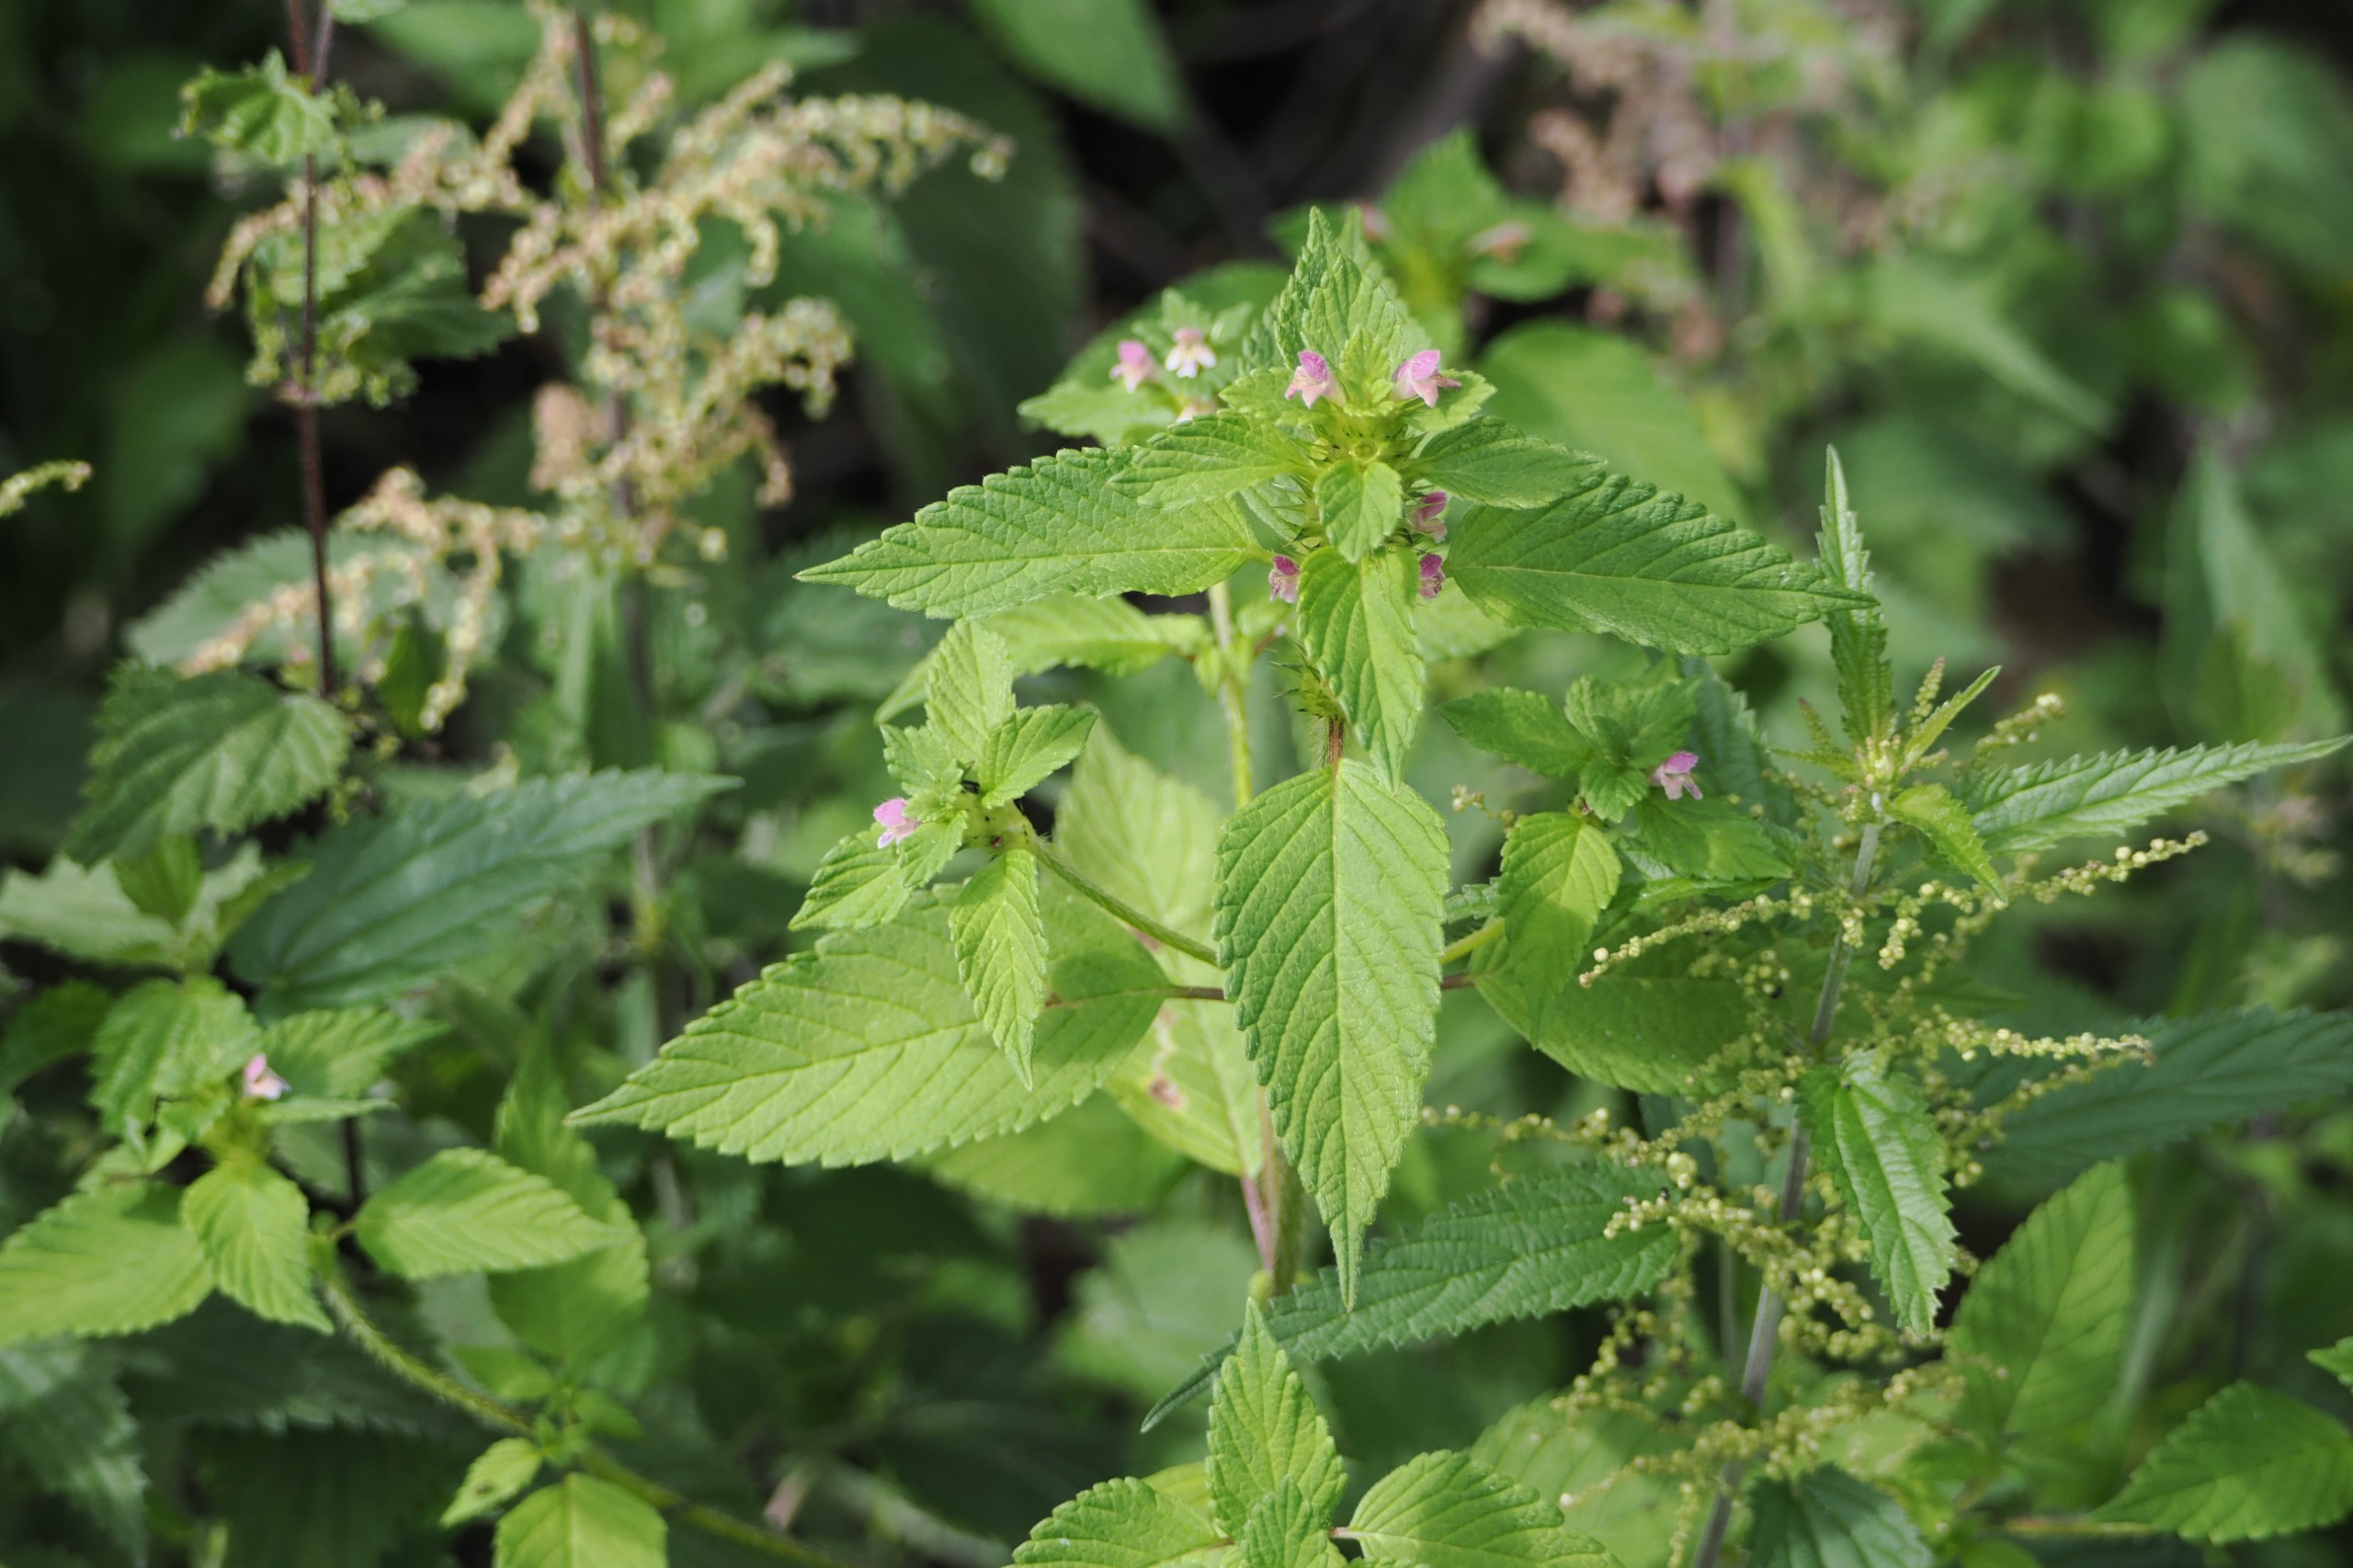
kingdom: Plantae
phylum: Tracheophyta
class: Magnoliopsida
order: Lamiales
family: Lamiaceae
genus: Galeopsis
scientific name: Galeopsis bifida
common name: Skov-hanekro
